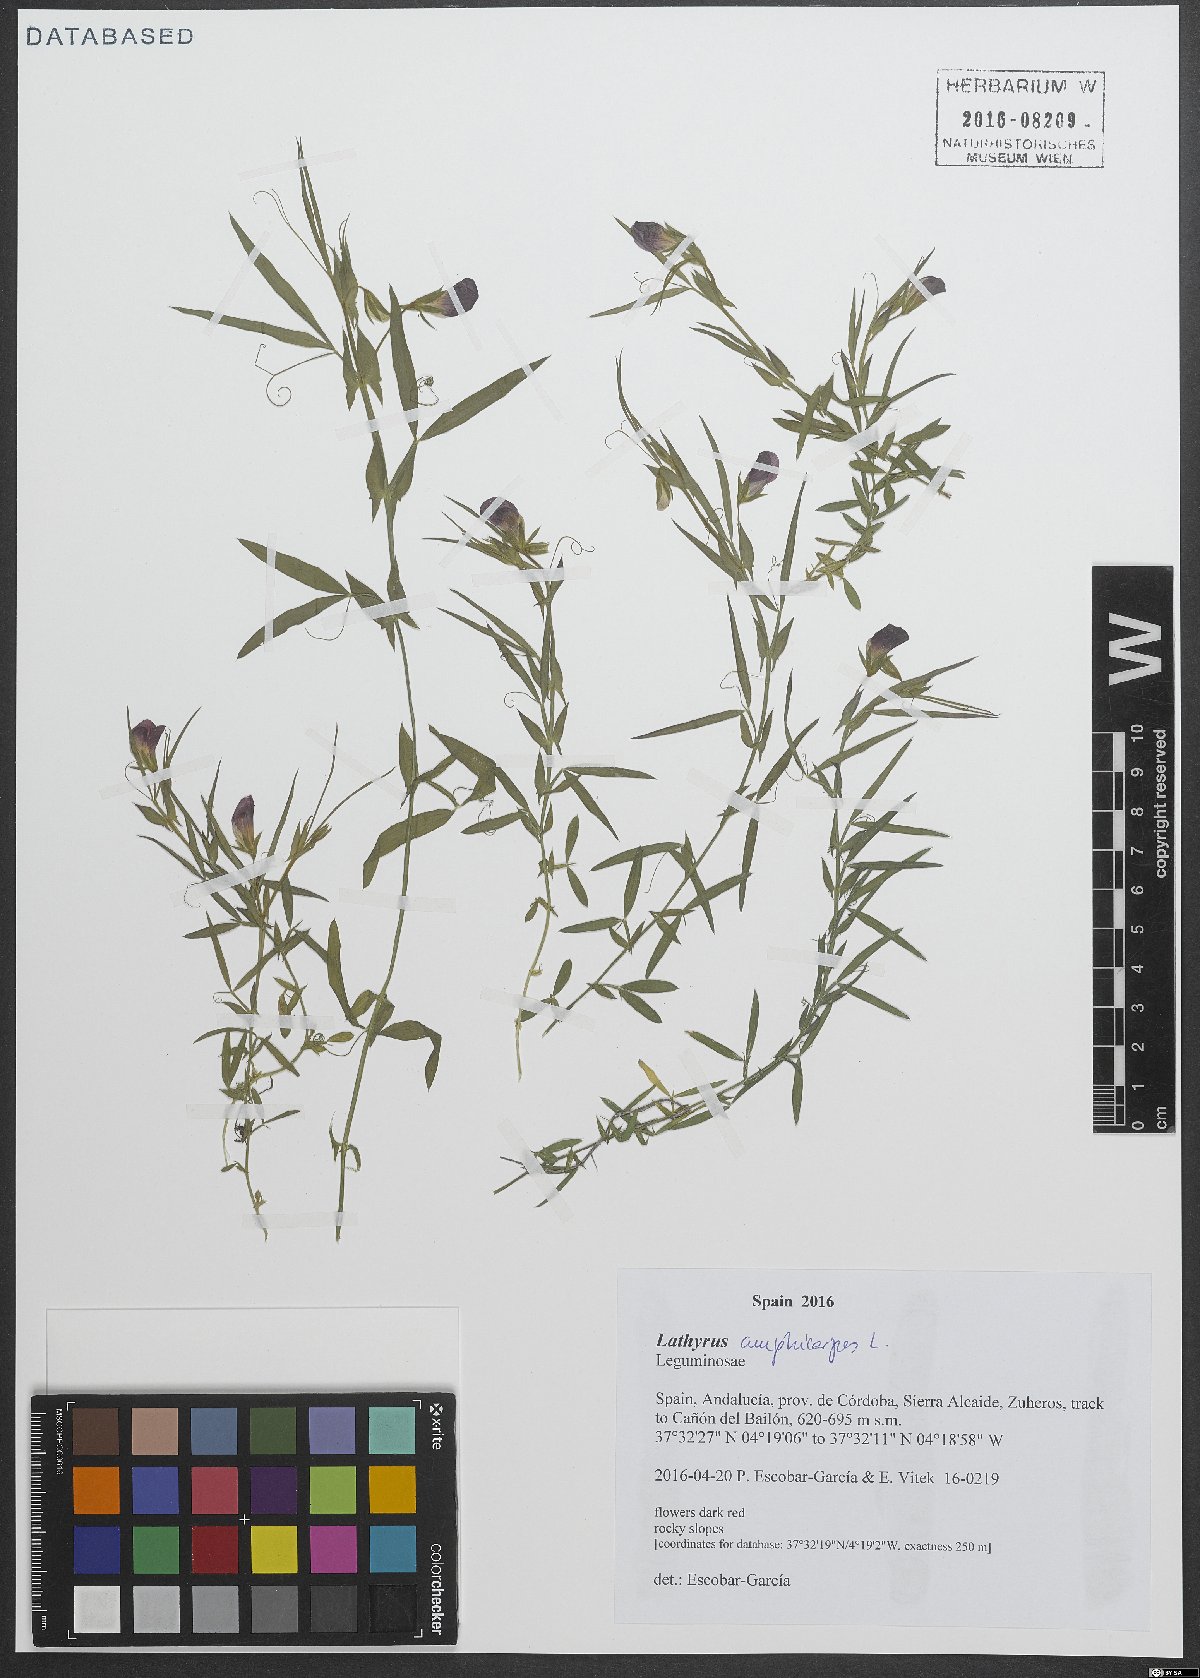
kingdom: Plantae
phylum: Tracheophyta
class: Magnoliopsida
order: Fabales
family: Fabaceae
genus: Lathyrus
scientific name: Lathyrus amphicarpos
